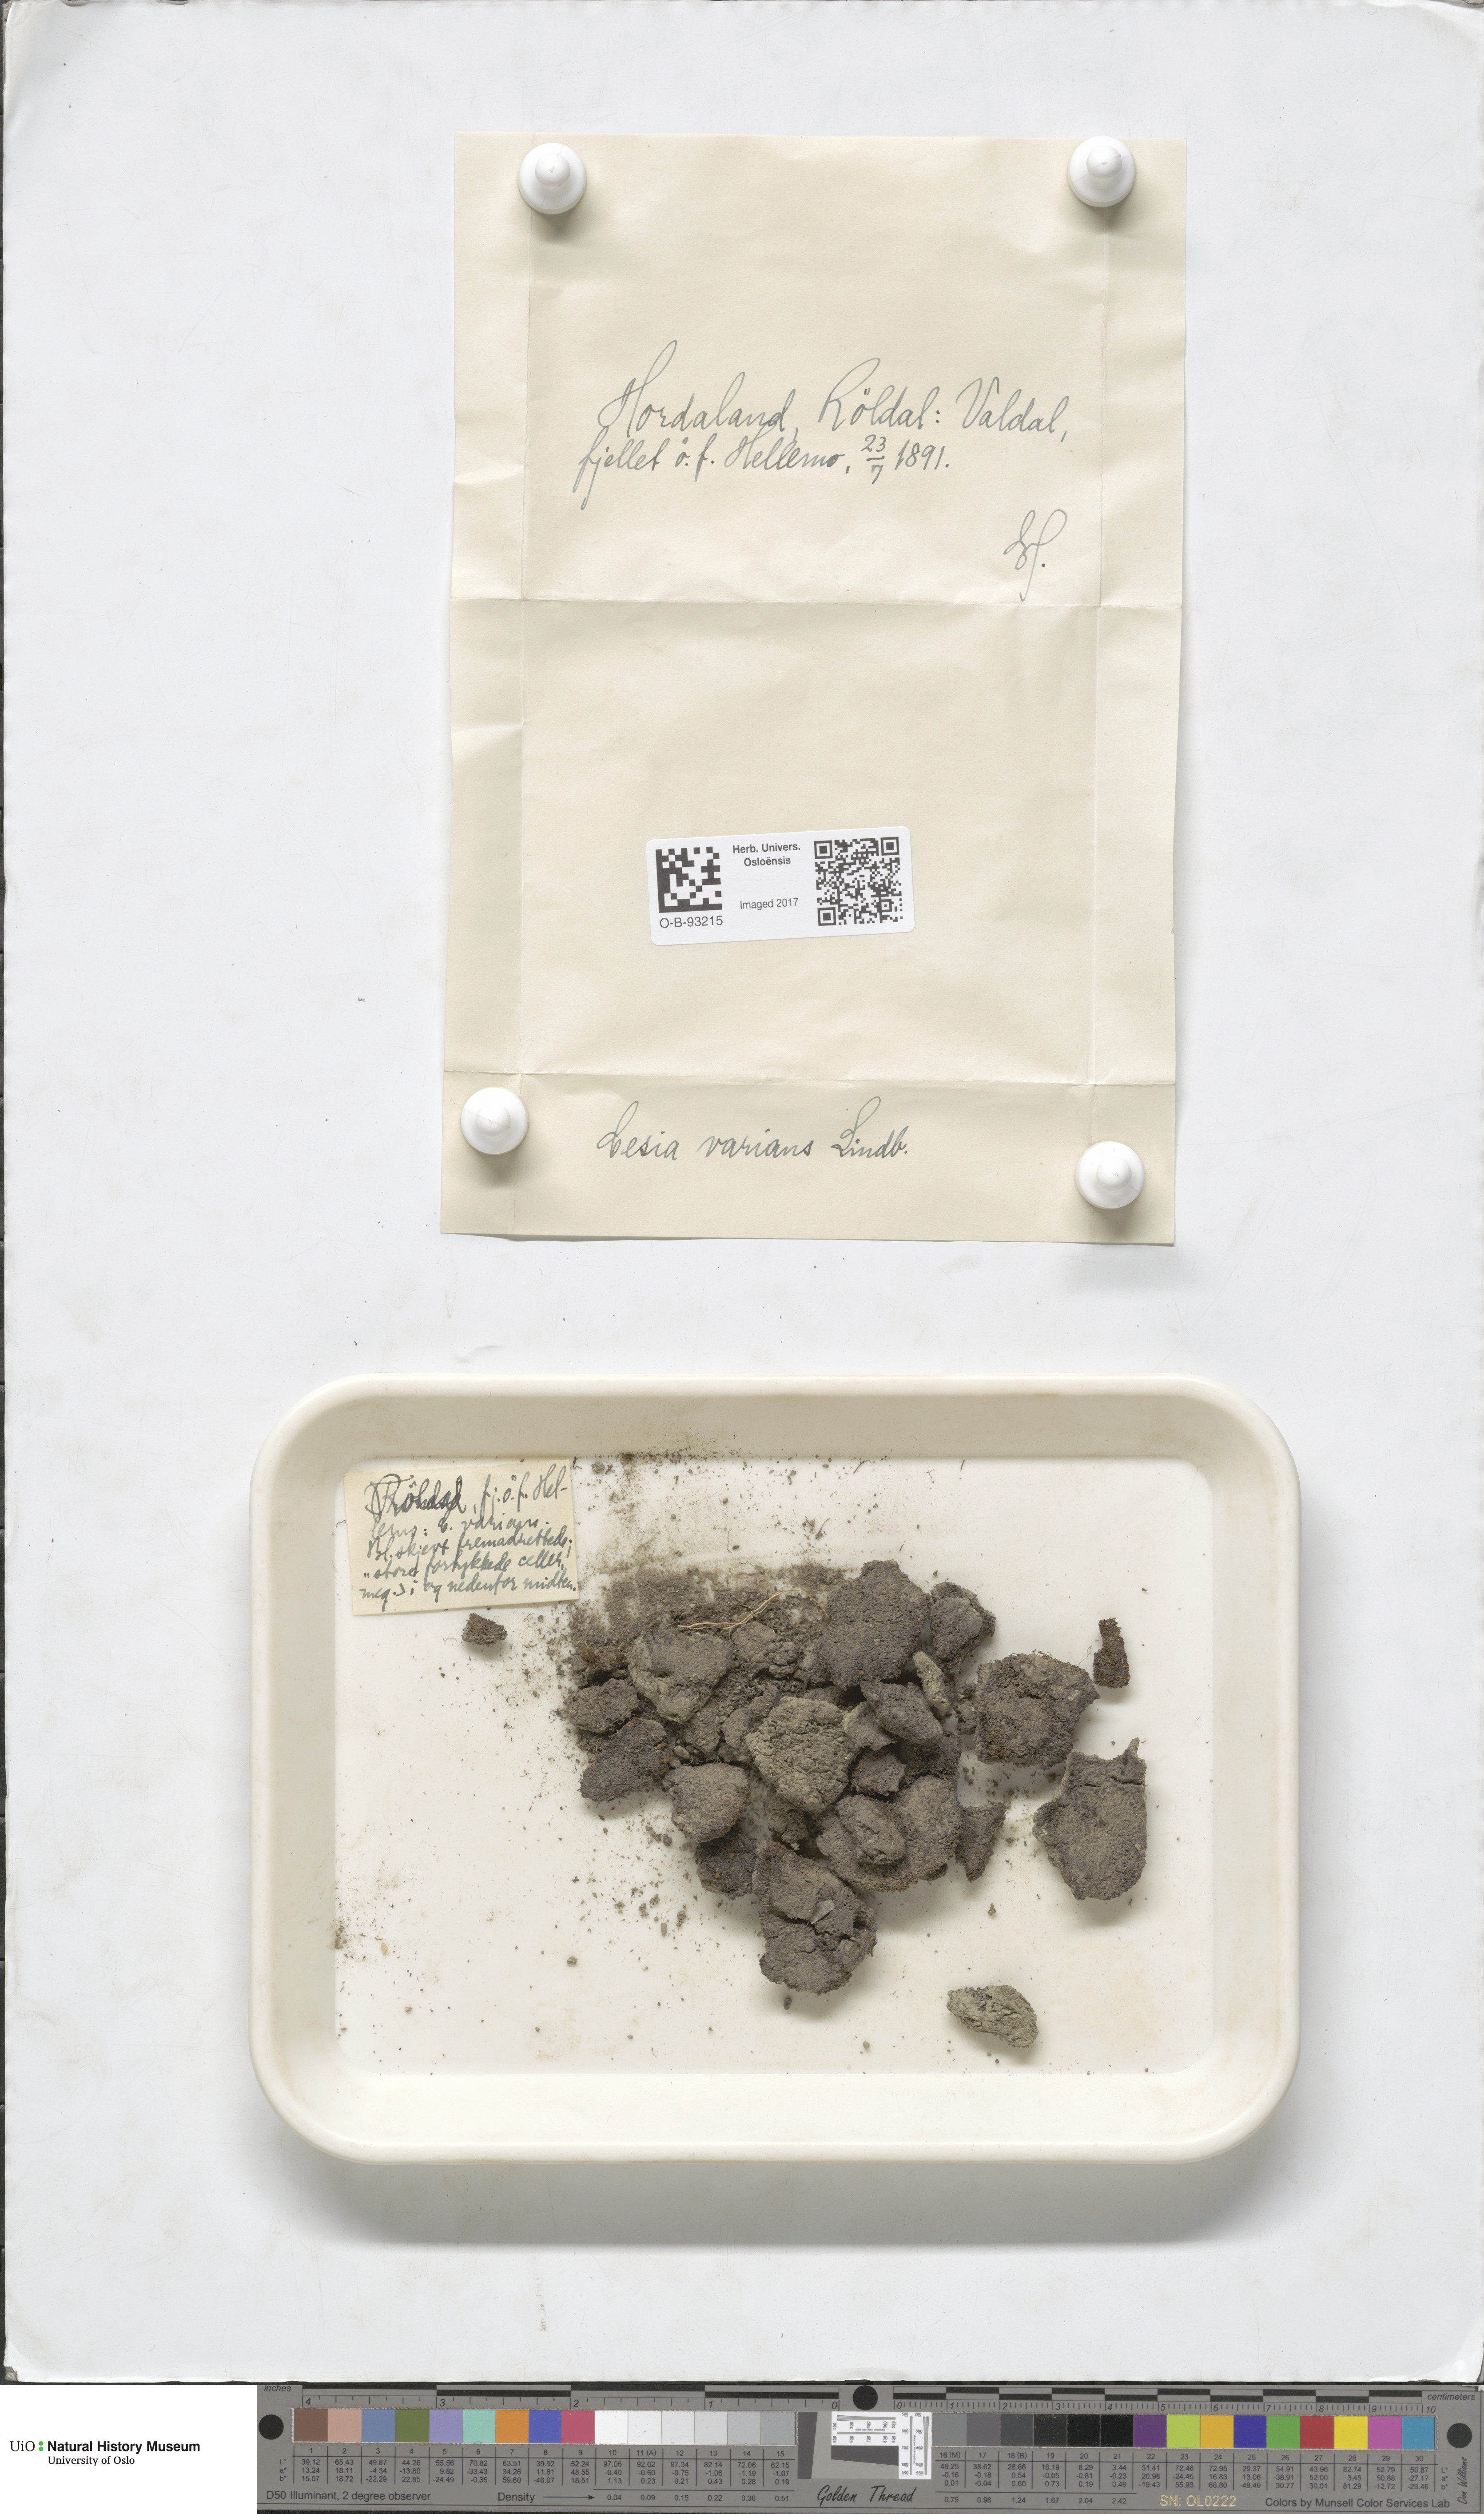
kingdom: Plantae
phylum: Marchantiophyta
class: Jungermanniopsida
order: Jungermanniales
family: Gymnomitriaceae
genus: Gymnomitrion
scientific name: Gymnomitrion brevissimum
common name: Snow rustwort
